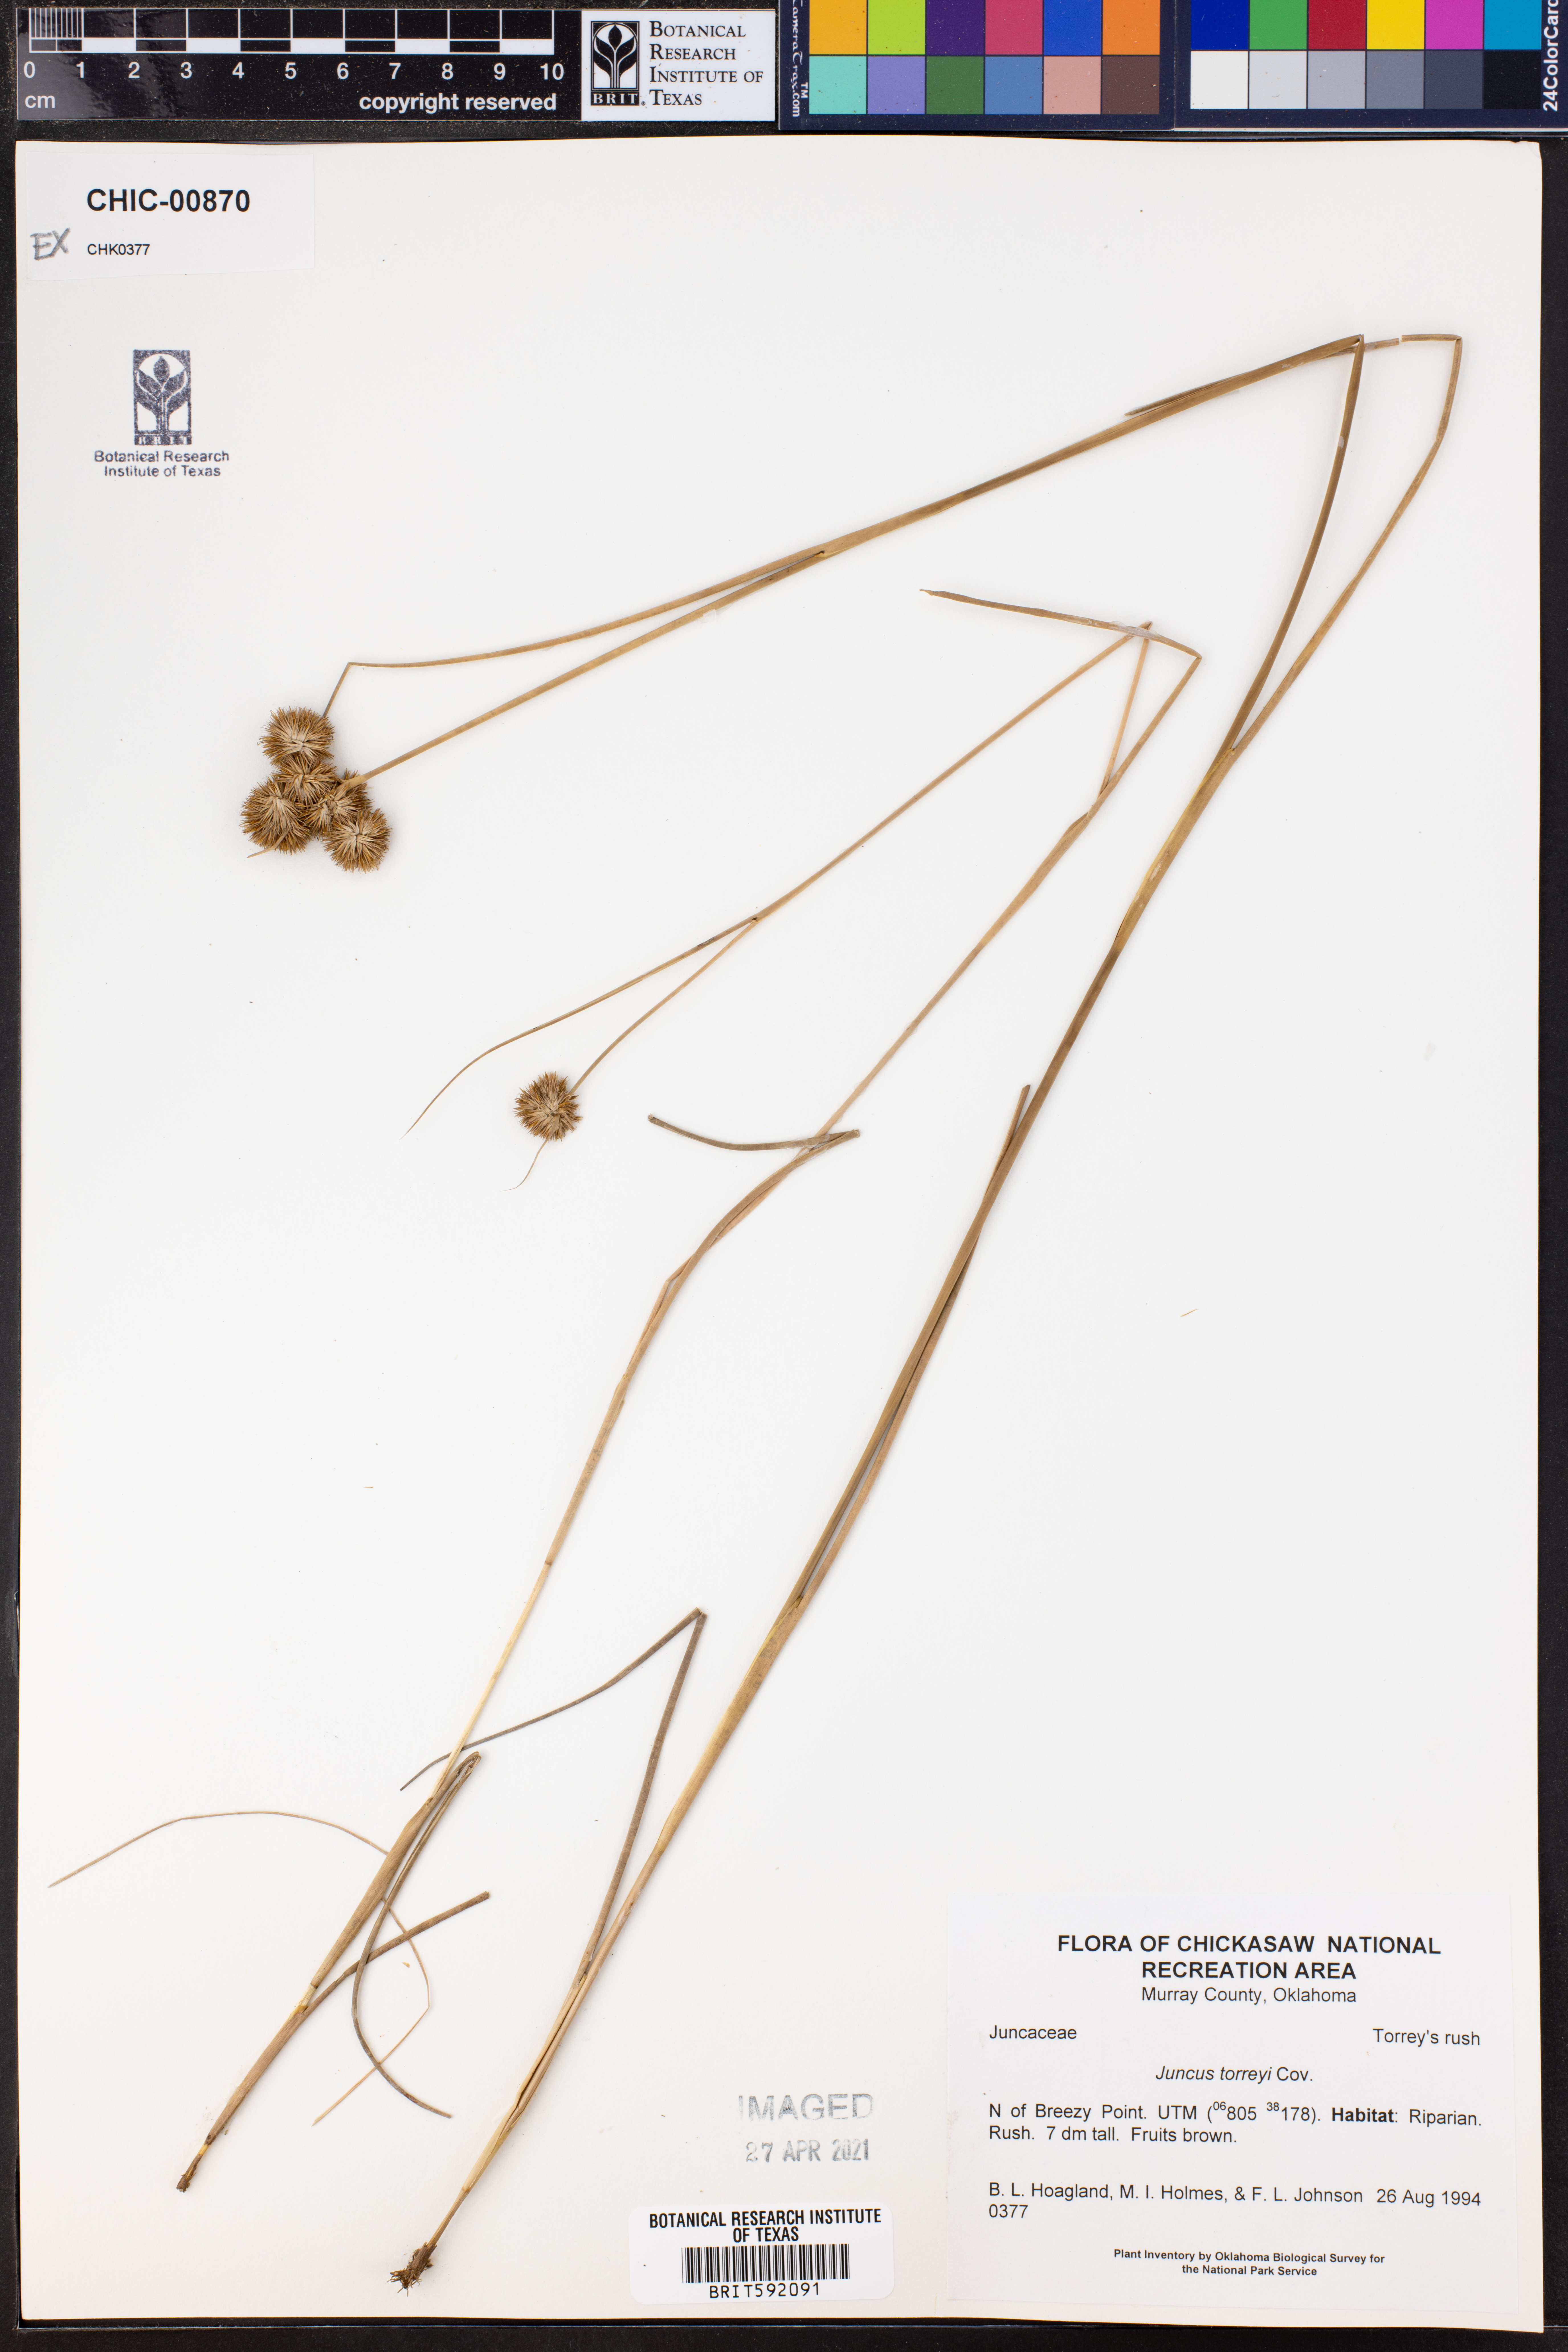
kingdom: Plantae
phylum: Tracheophyta
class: Liliopsida
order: Poales
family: Juncaceae
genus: Juncus
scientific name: Juncus torreyi
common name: Torrey's rush
